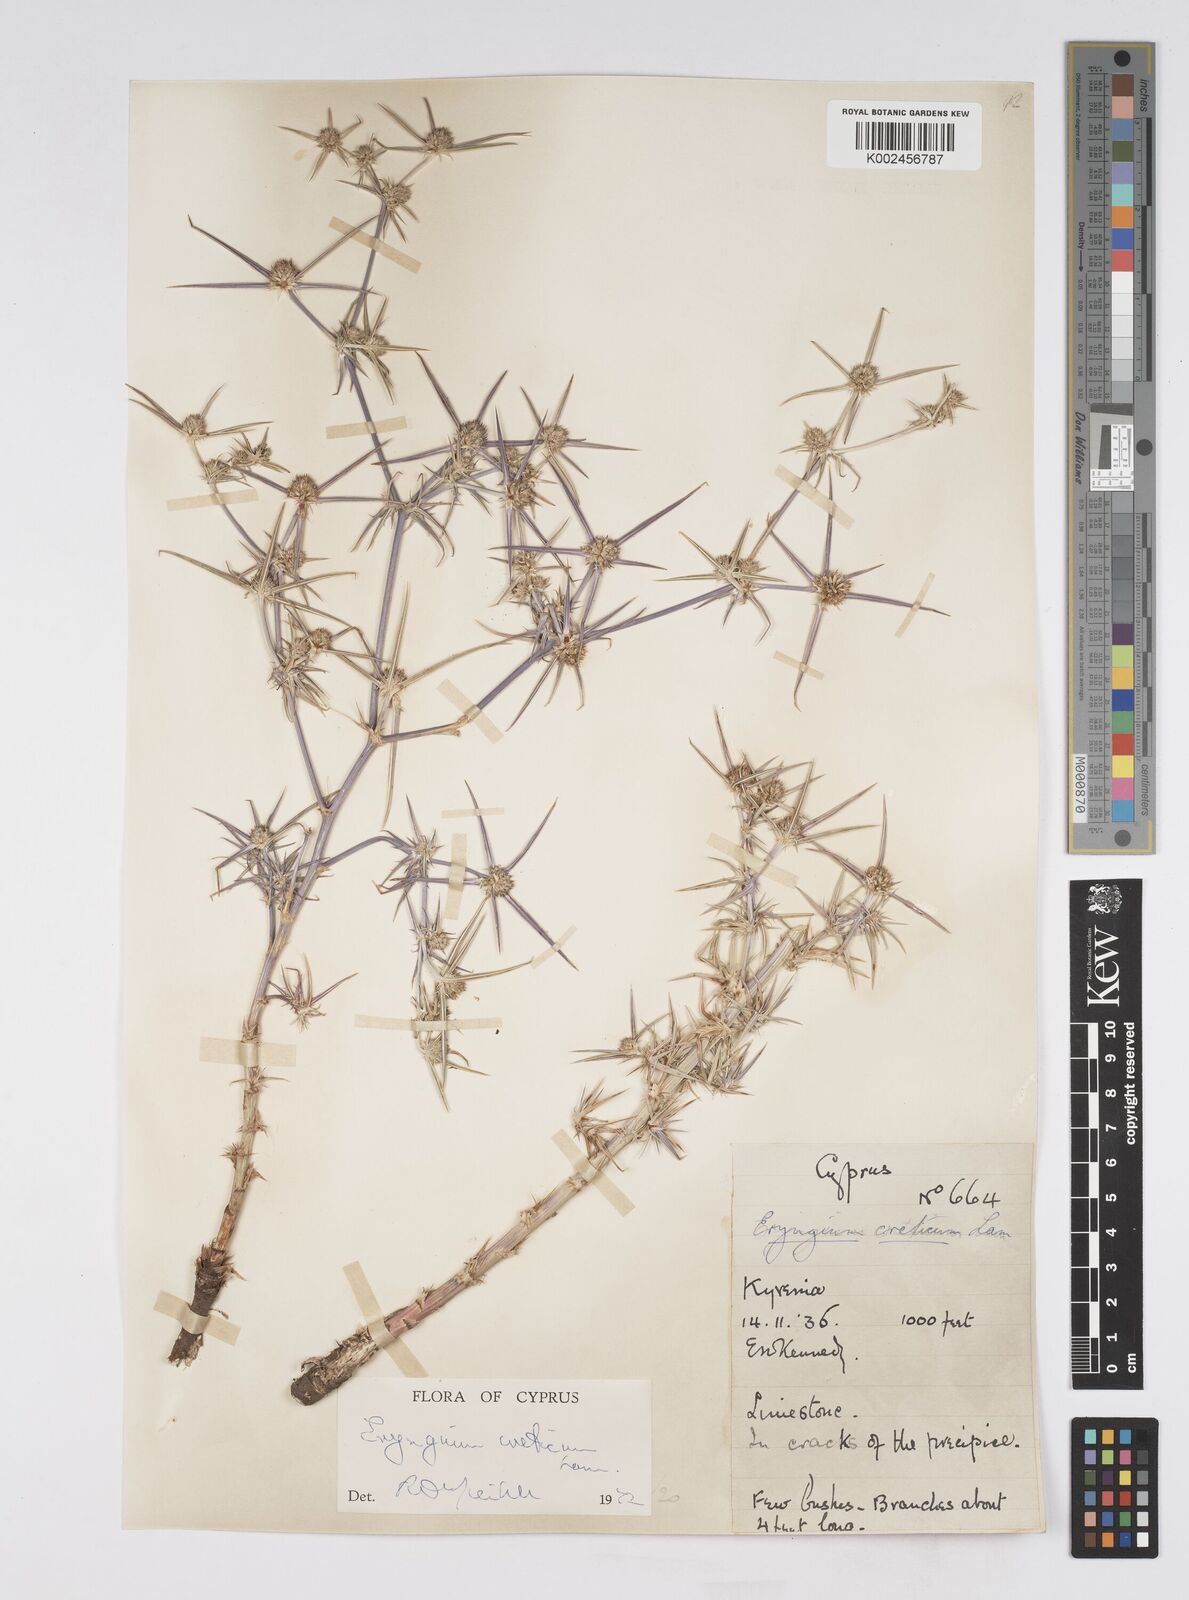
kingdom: Plantae
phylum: Tracheophyta
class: Magnoliopsida
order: Apiales
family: Apiaceae
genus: Eryngium
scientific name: Eryngium creticum
